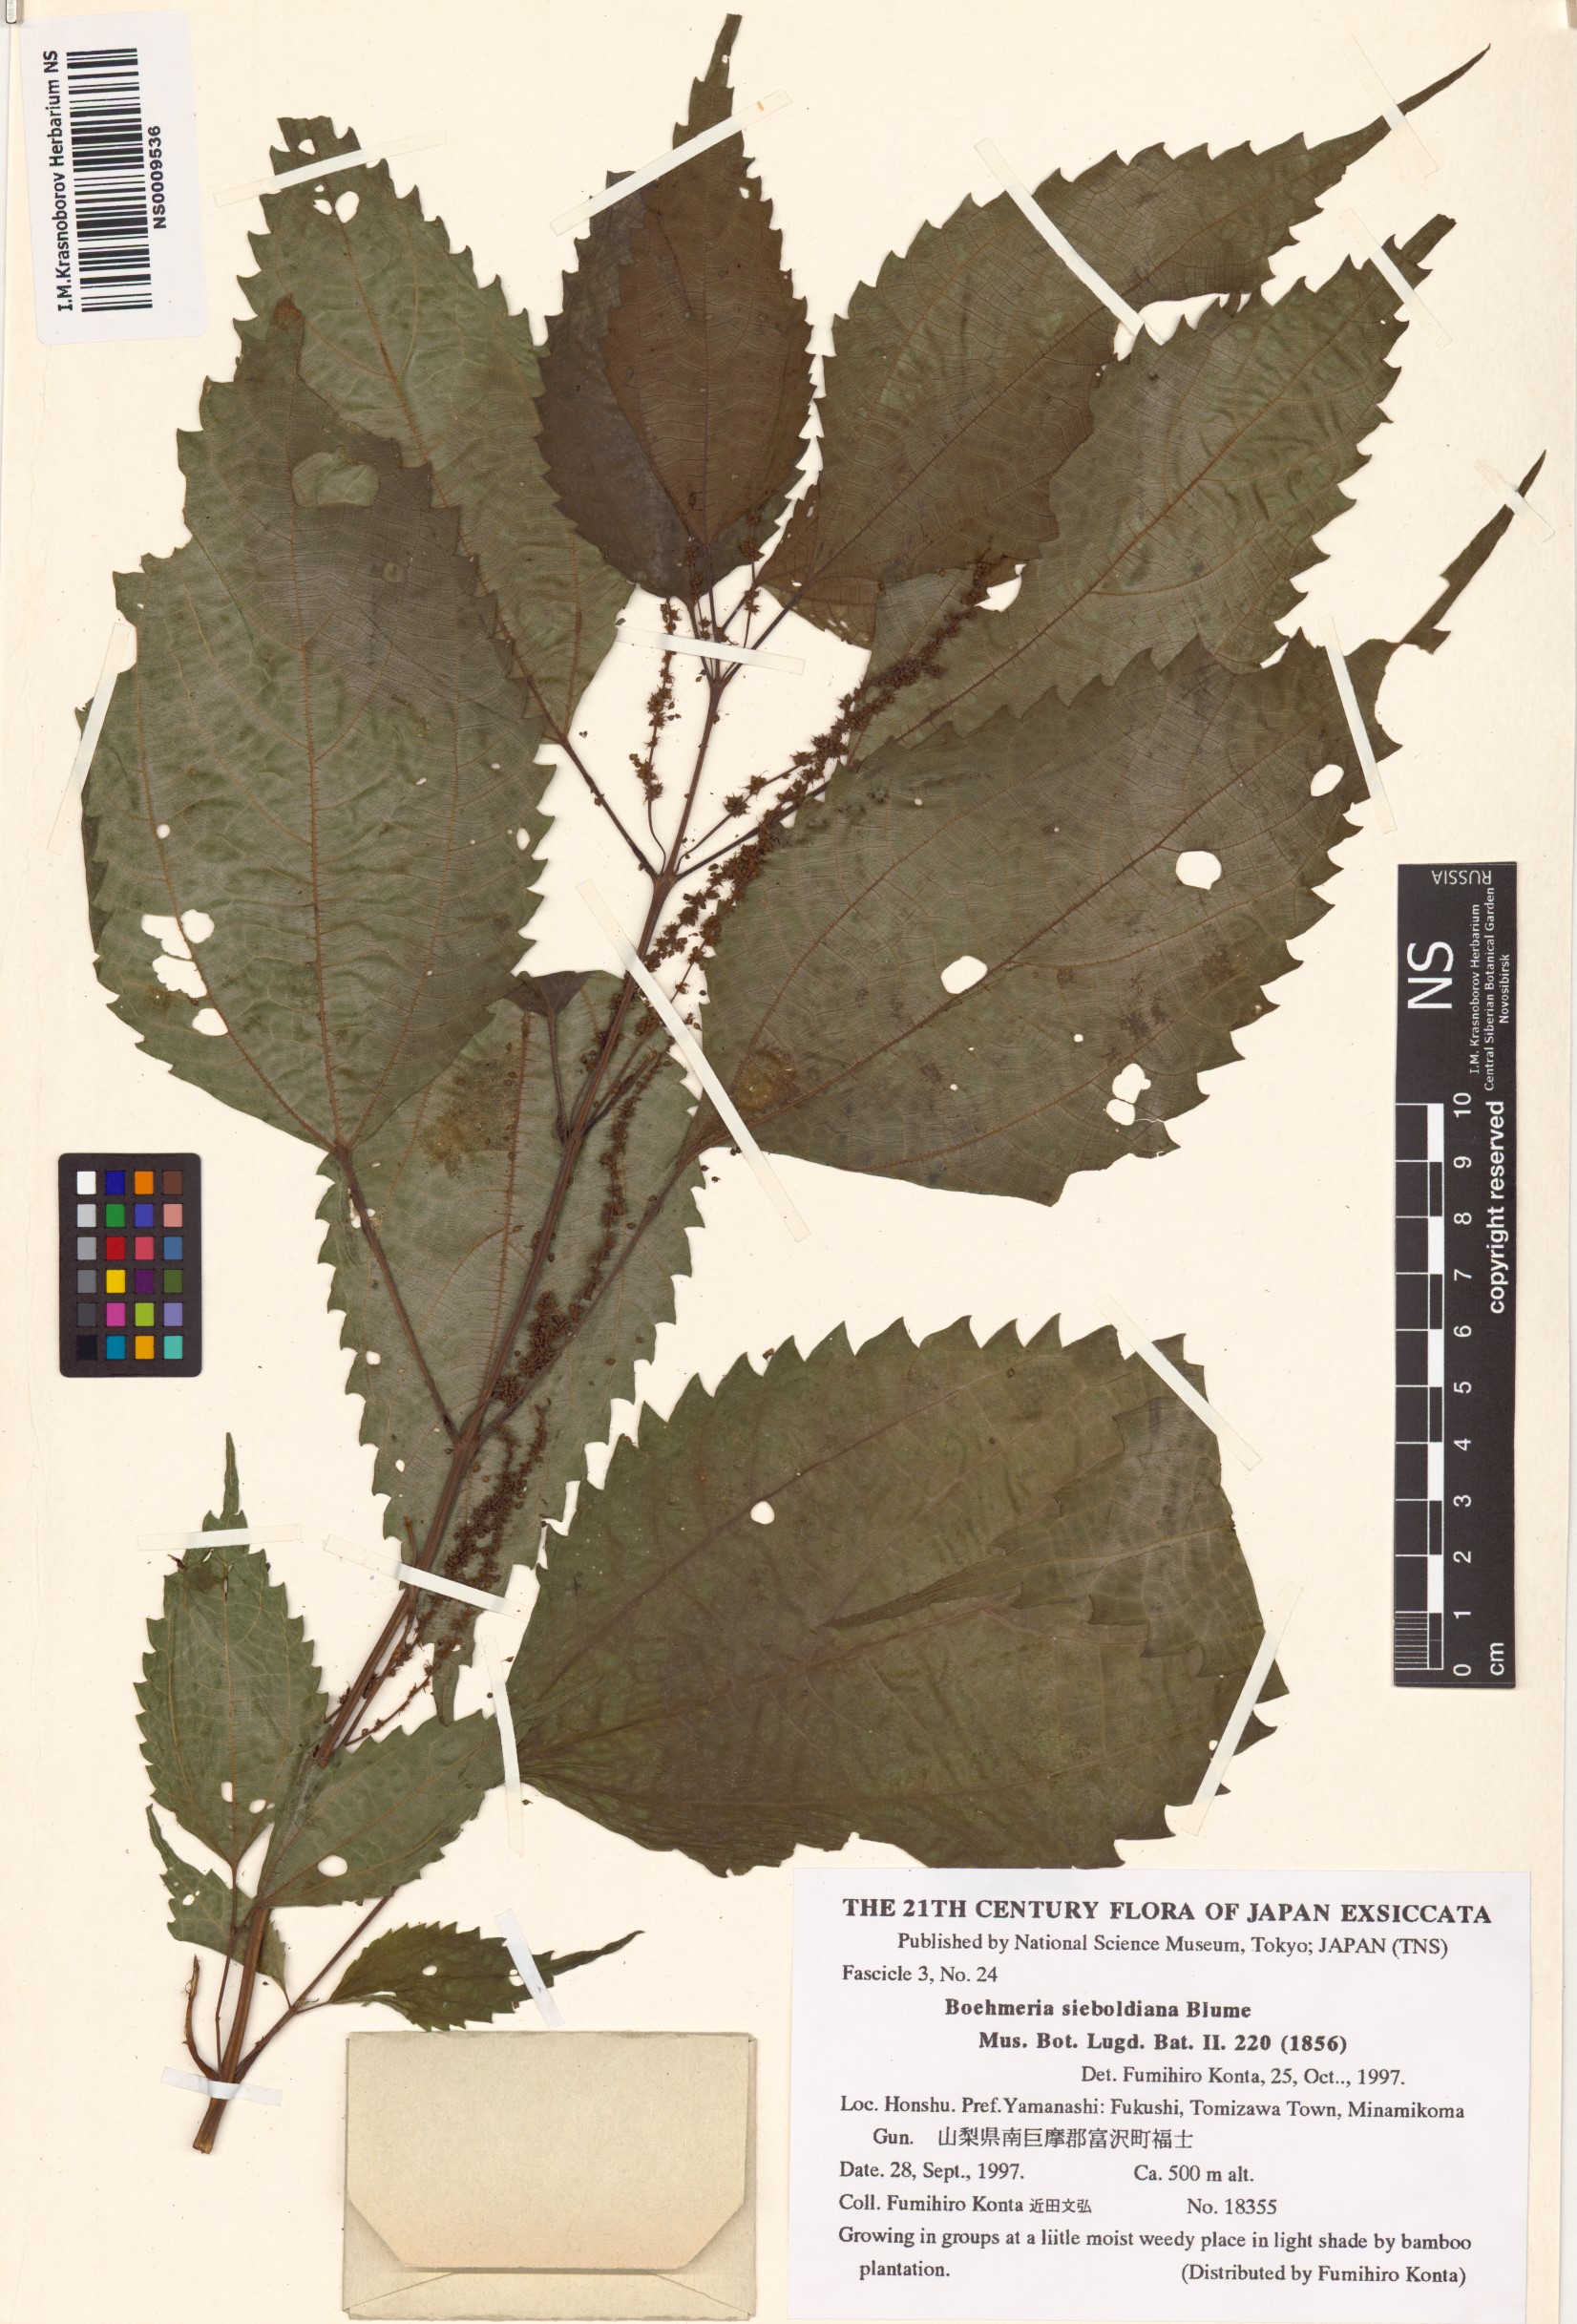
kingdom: Plantae
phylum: Tracheophyta
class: Magnoliopsida
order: Rosales
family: Urticaceae
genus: Boehmeria
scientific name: Boehmeria sieboldiana
